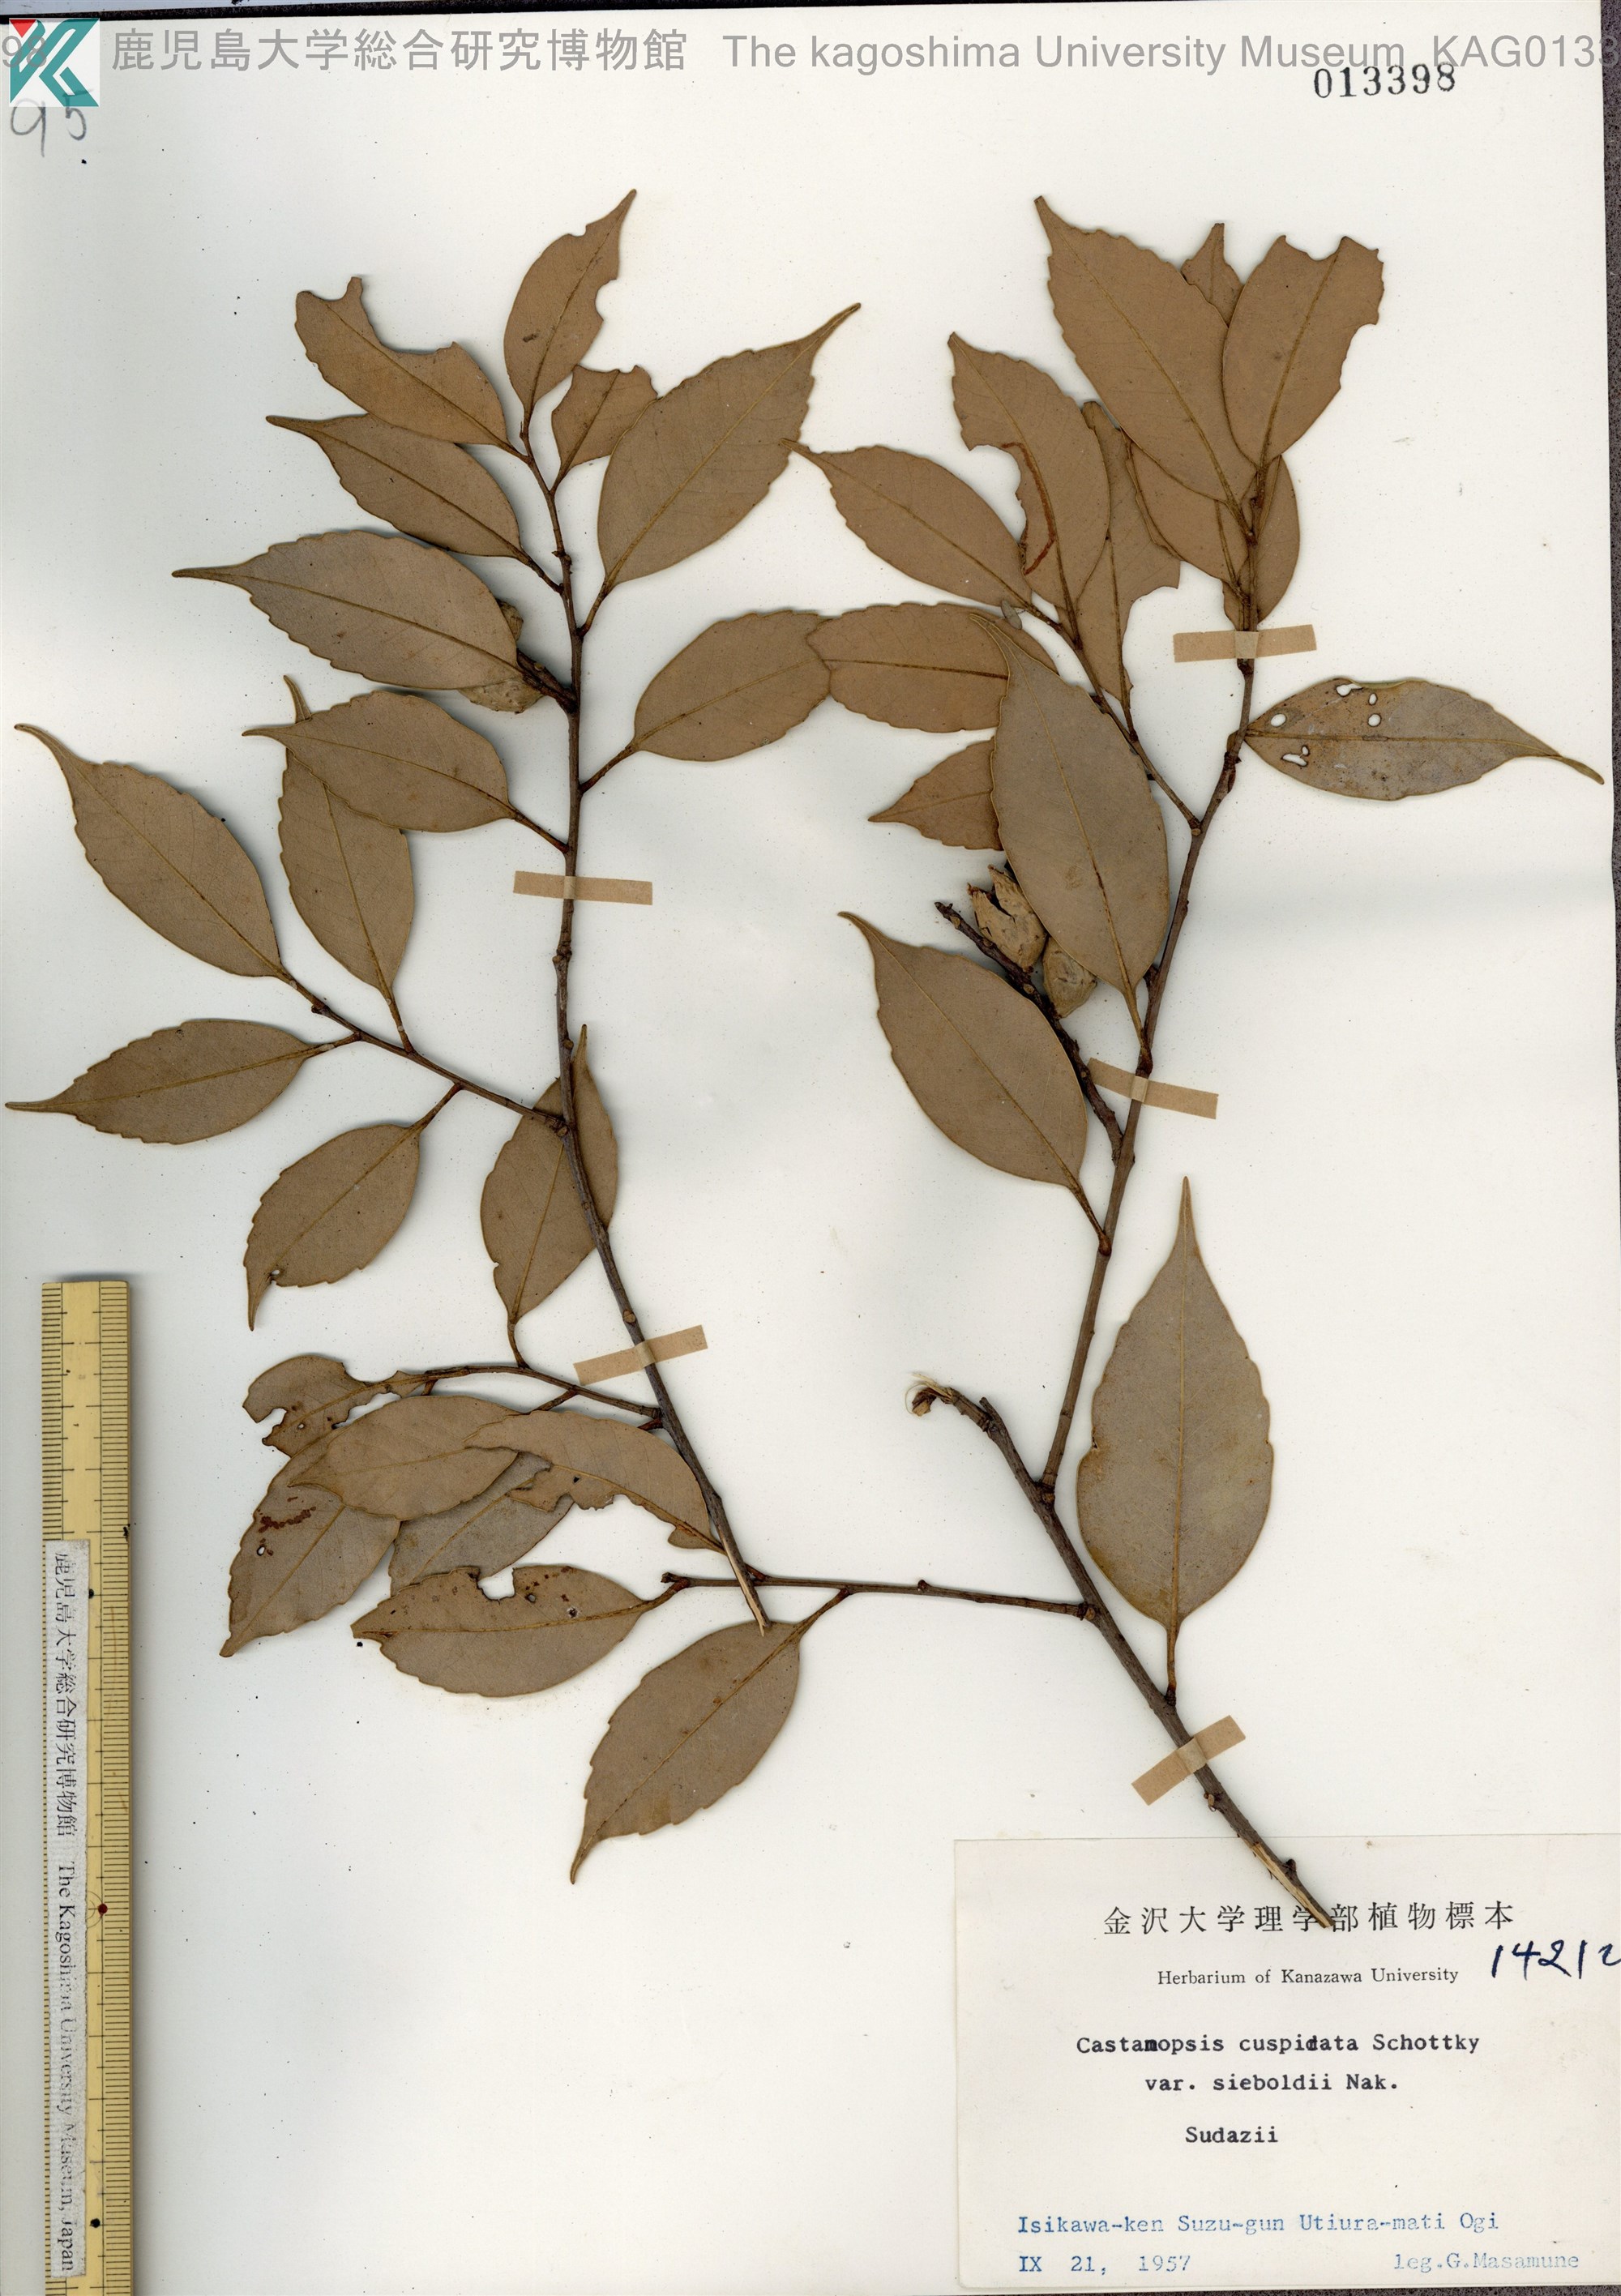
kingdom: Plantae
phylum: Tracheophyta
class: Magnoliopsida
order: Fagales
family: Fagaceae
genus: Castanopsis
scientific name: Castanopsis sieboldii
